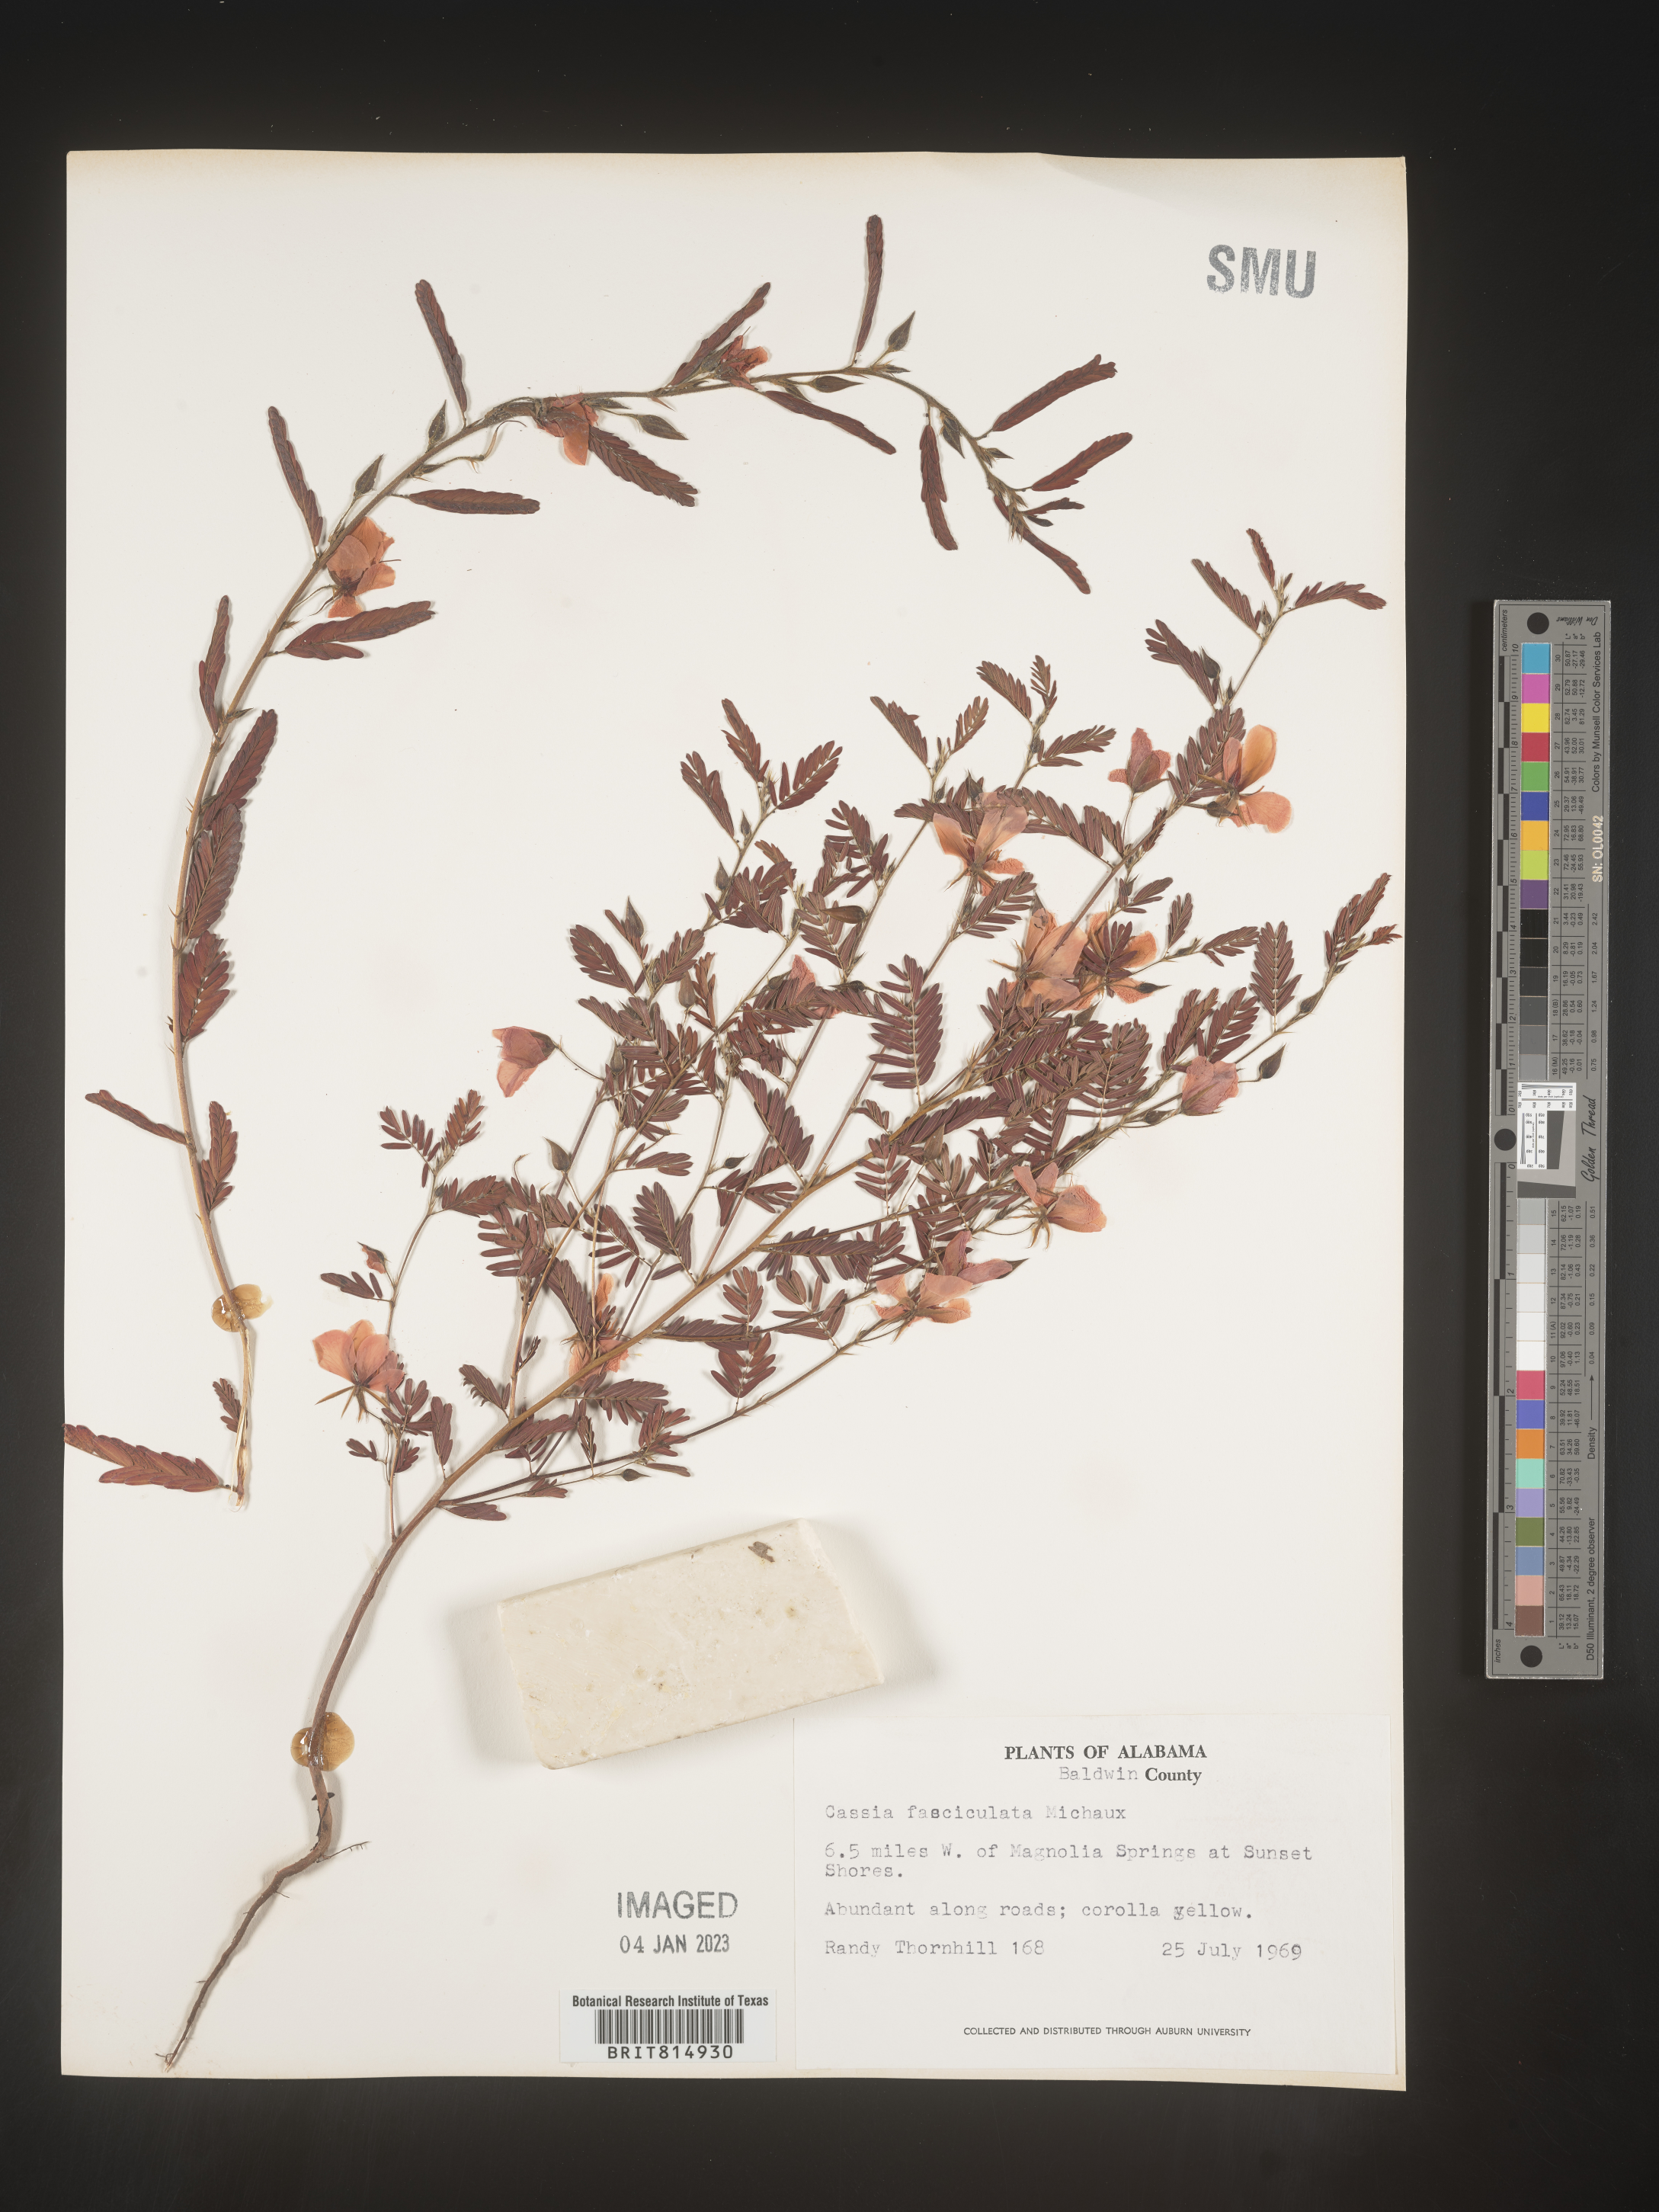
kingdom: Plantae
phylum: Tracheophyta
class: Magnoliopsida
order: Fabales
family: Fabaceae
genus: Chamaecrista
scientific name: Chamaecrista fasciculata
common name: Golden cassia
